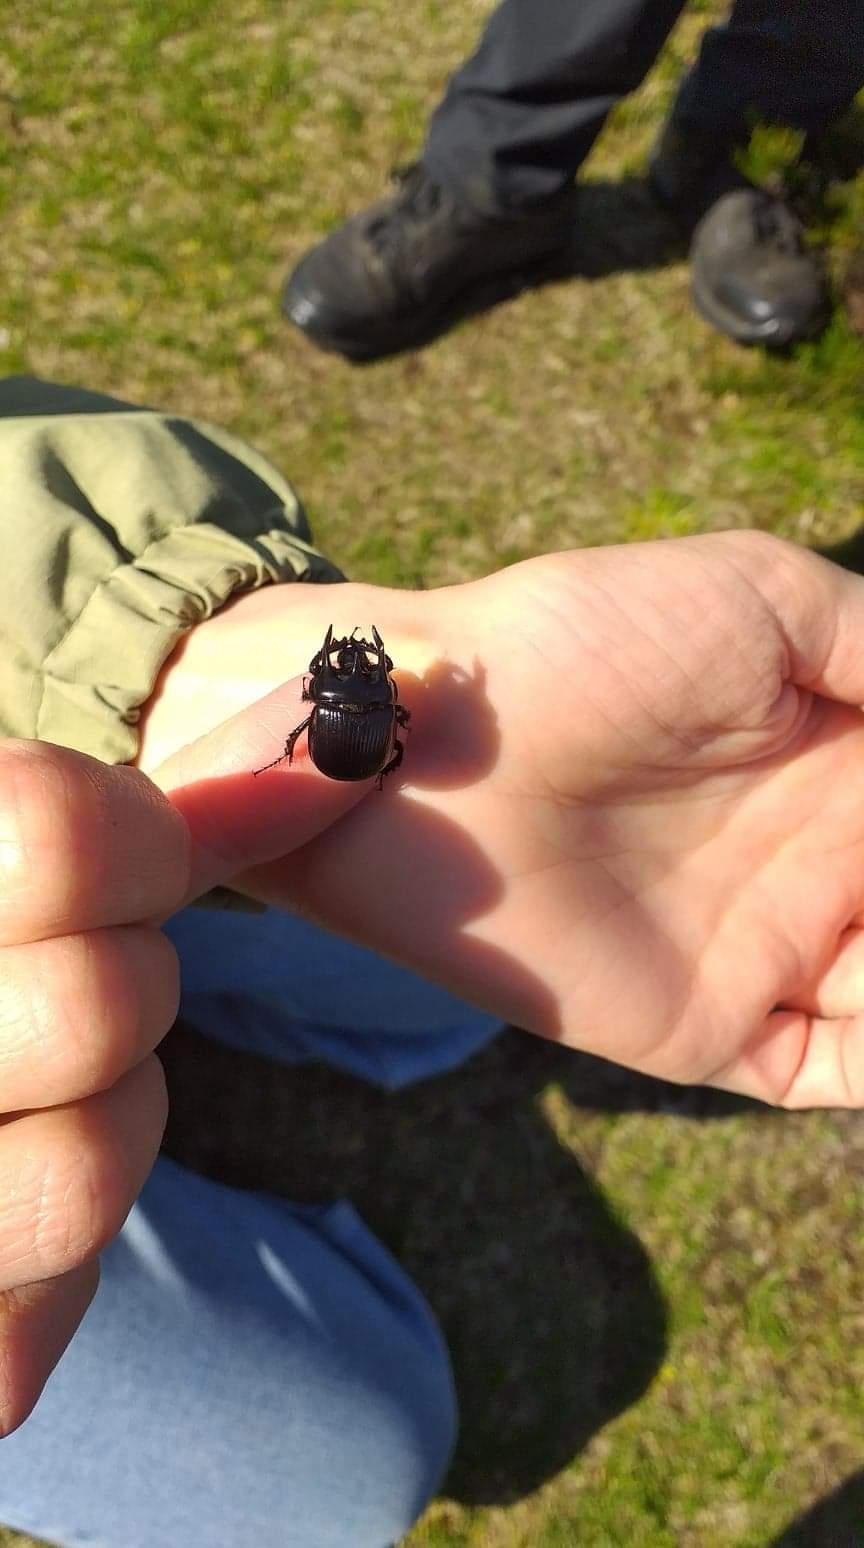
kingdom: Animalia
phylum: Arthropoda
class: Insecta
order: Coleoptera
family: Geotrupidae
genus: Typhaeus
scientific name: Typhaeus typhoeus
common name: Trehornet skarnbasse
